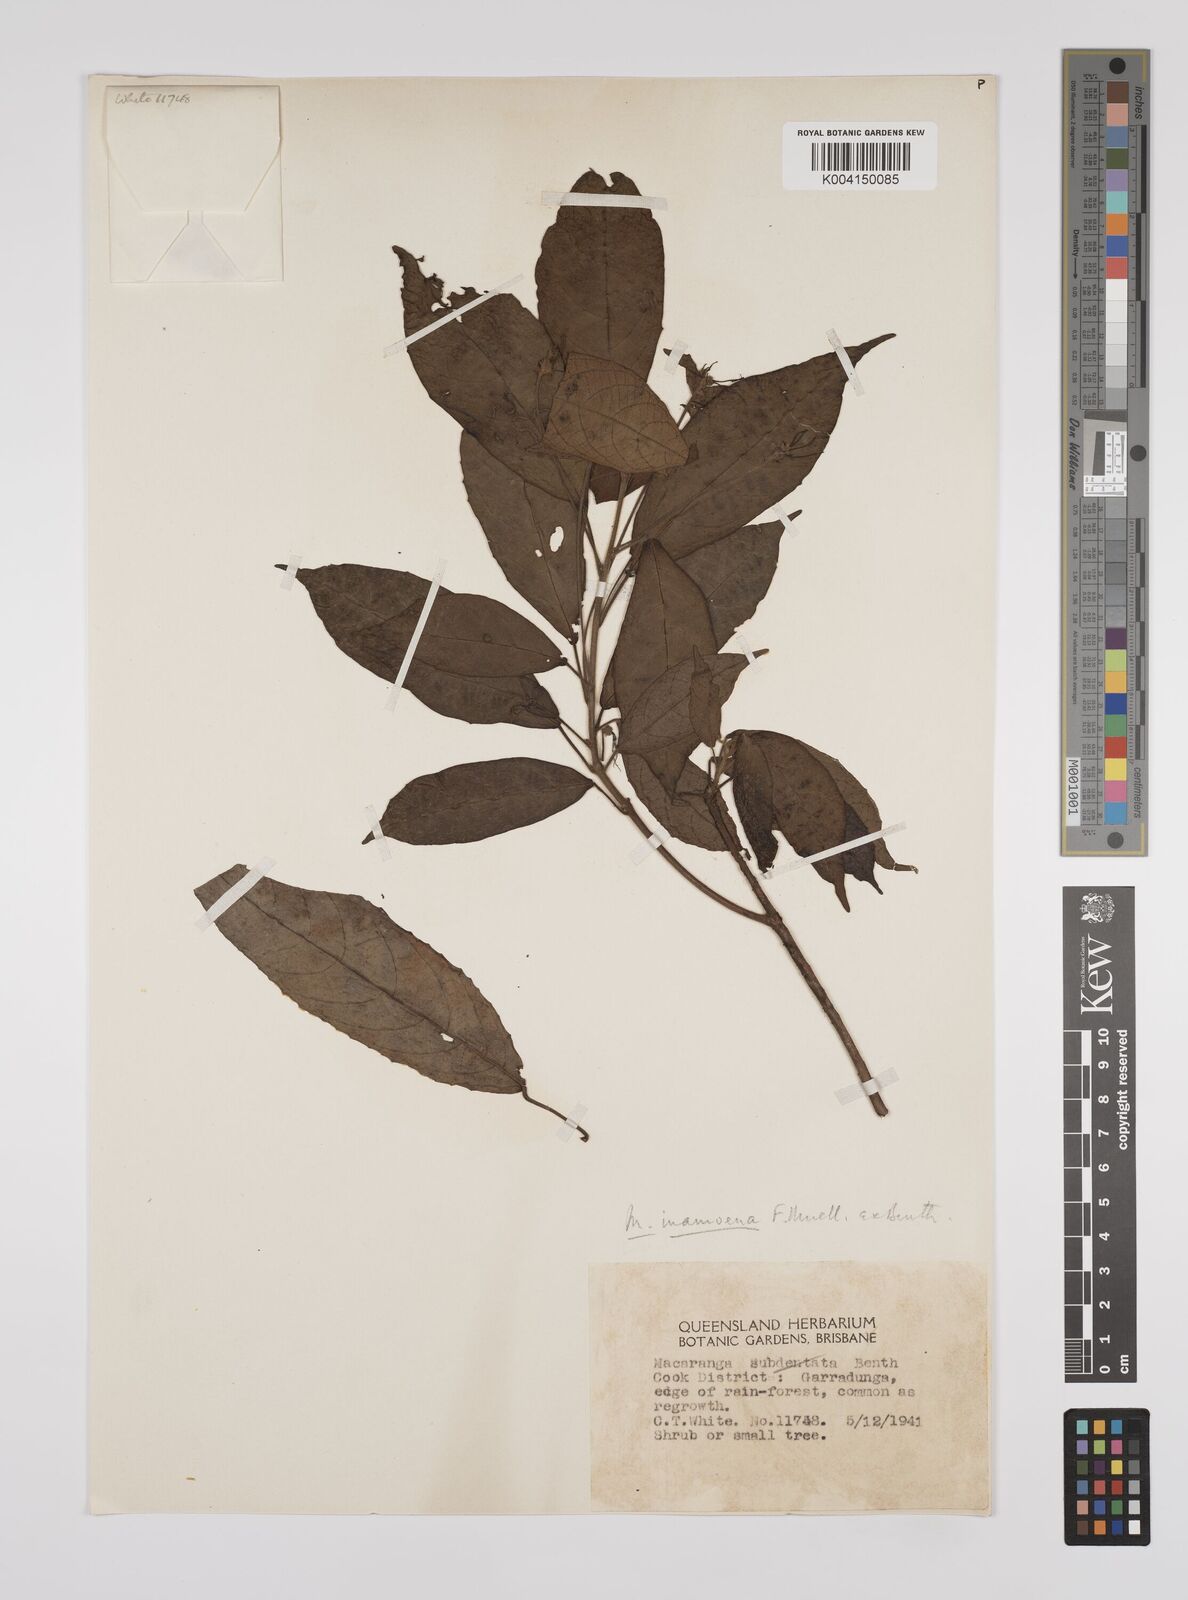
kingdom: Plantae
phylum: Tracheophyta
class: Magnoliopsida
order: Malpighiales
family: Euphorbiaceae
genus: Macaranga
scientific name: Macaranga inamoena
